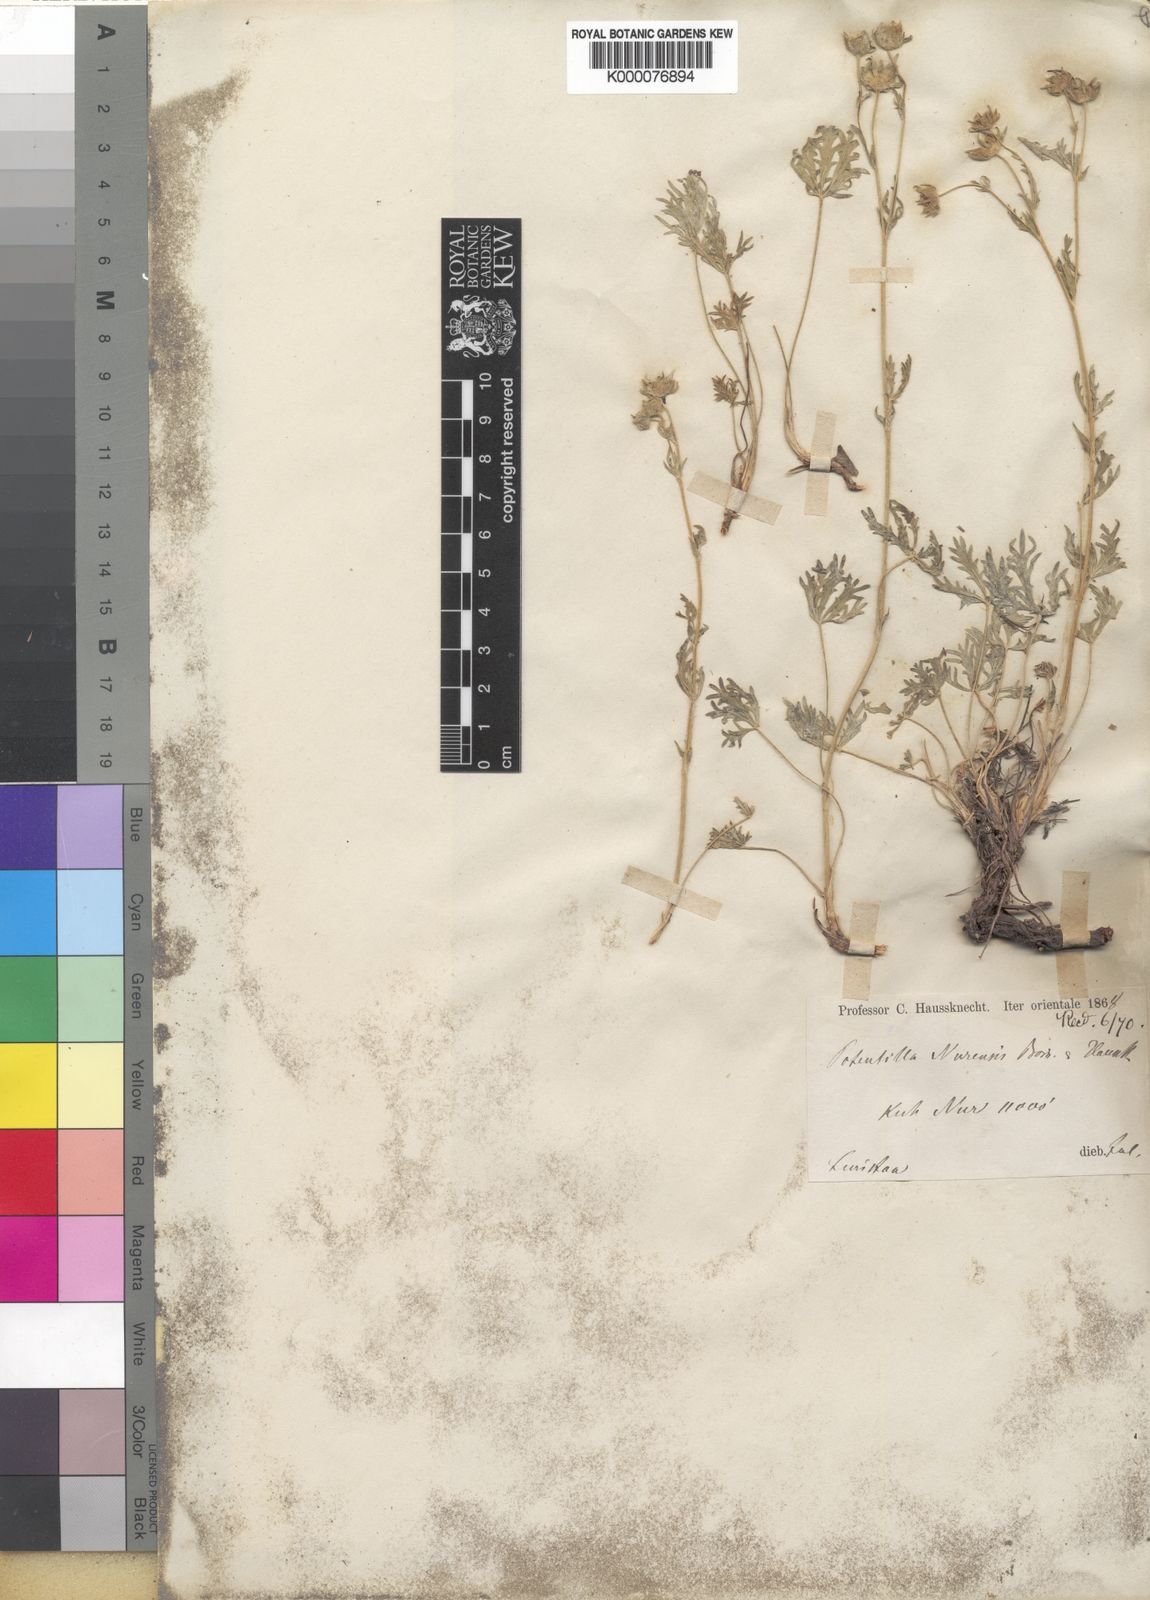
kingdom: Plantae
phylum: Tracheophyta
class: Magnoliopsida
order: Rosales
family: Rosaceae
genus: Potentilla
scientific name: Potentilla nurensis
